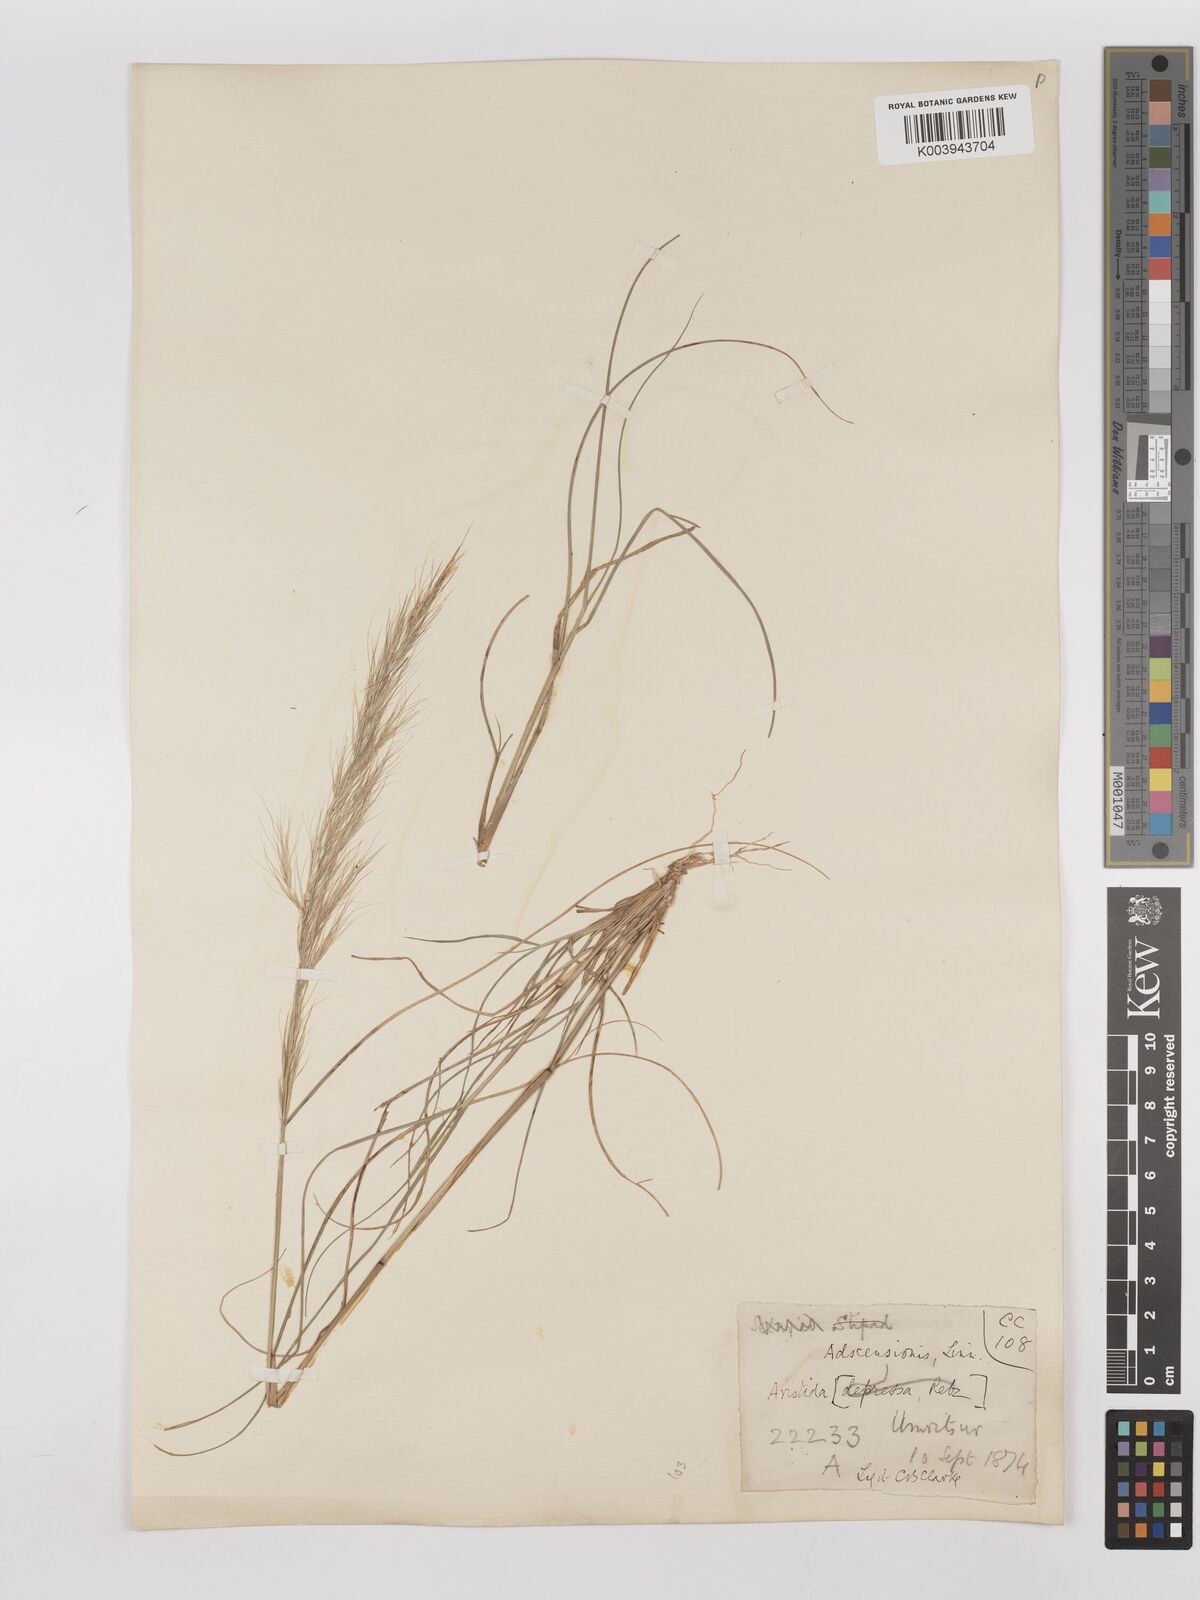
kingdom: Plantae
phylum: Tracheophyta
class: Liliopsida
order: Poales
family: Poaceae
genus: Aristida
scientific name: Aristida adscensionis
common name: Sixweeks threeawn
